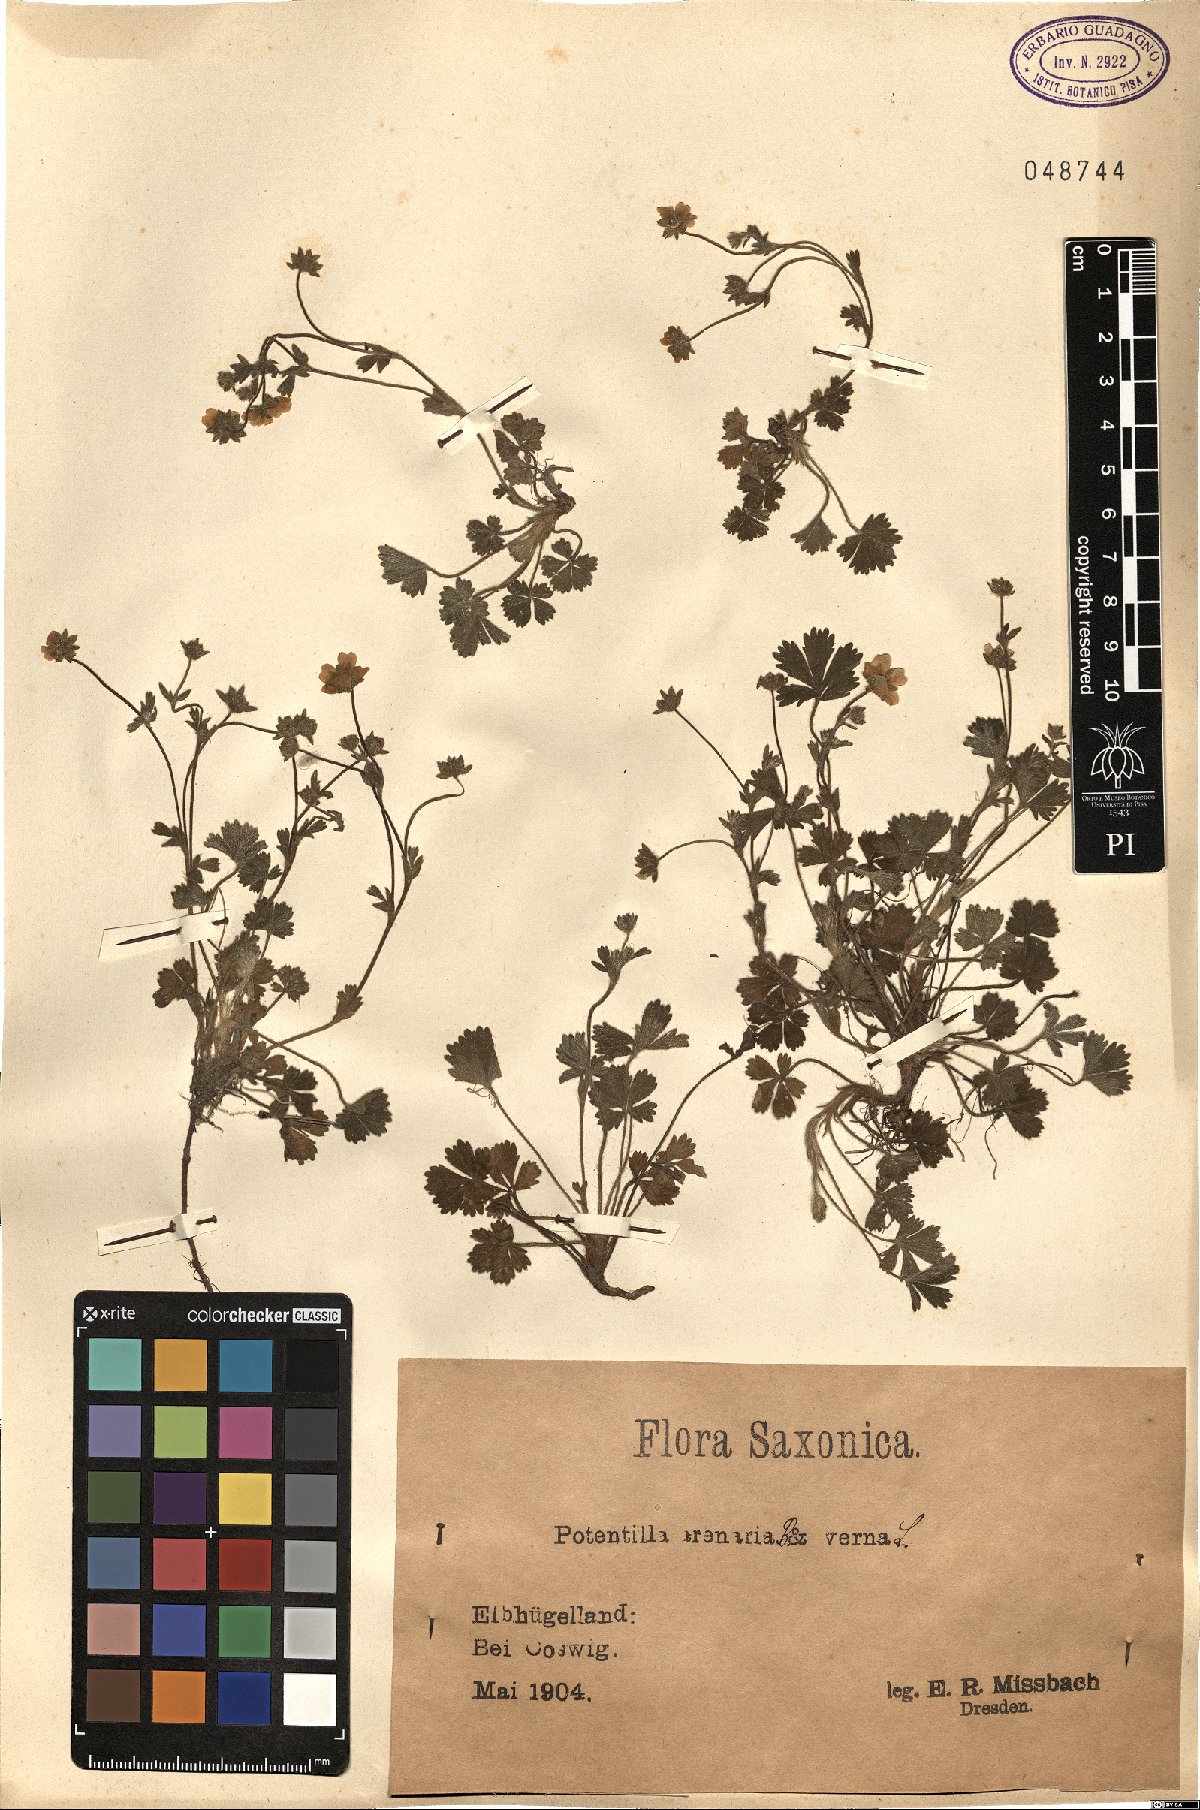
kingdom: Plantae
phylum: Tracheophyta
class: Magnoliopsida
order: Rosales
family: Rosaceae
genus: Potentilla
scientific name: Potentilla cinerea
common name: Ashy cinquefoil
